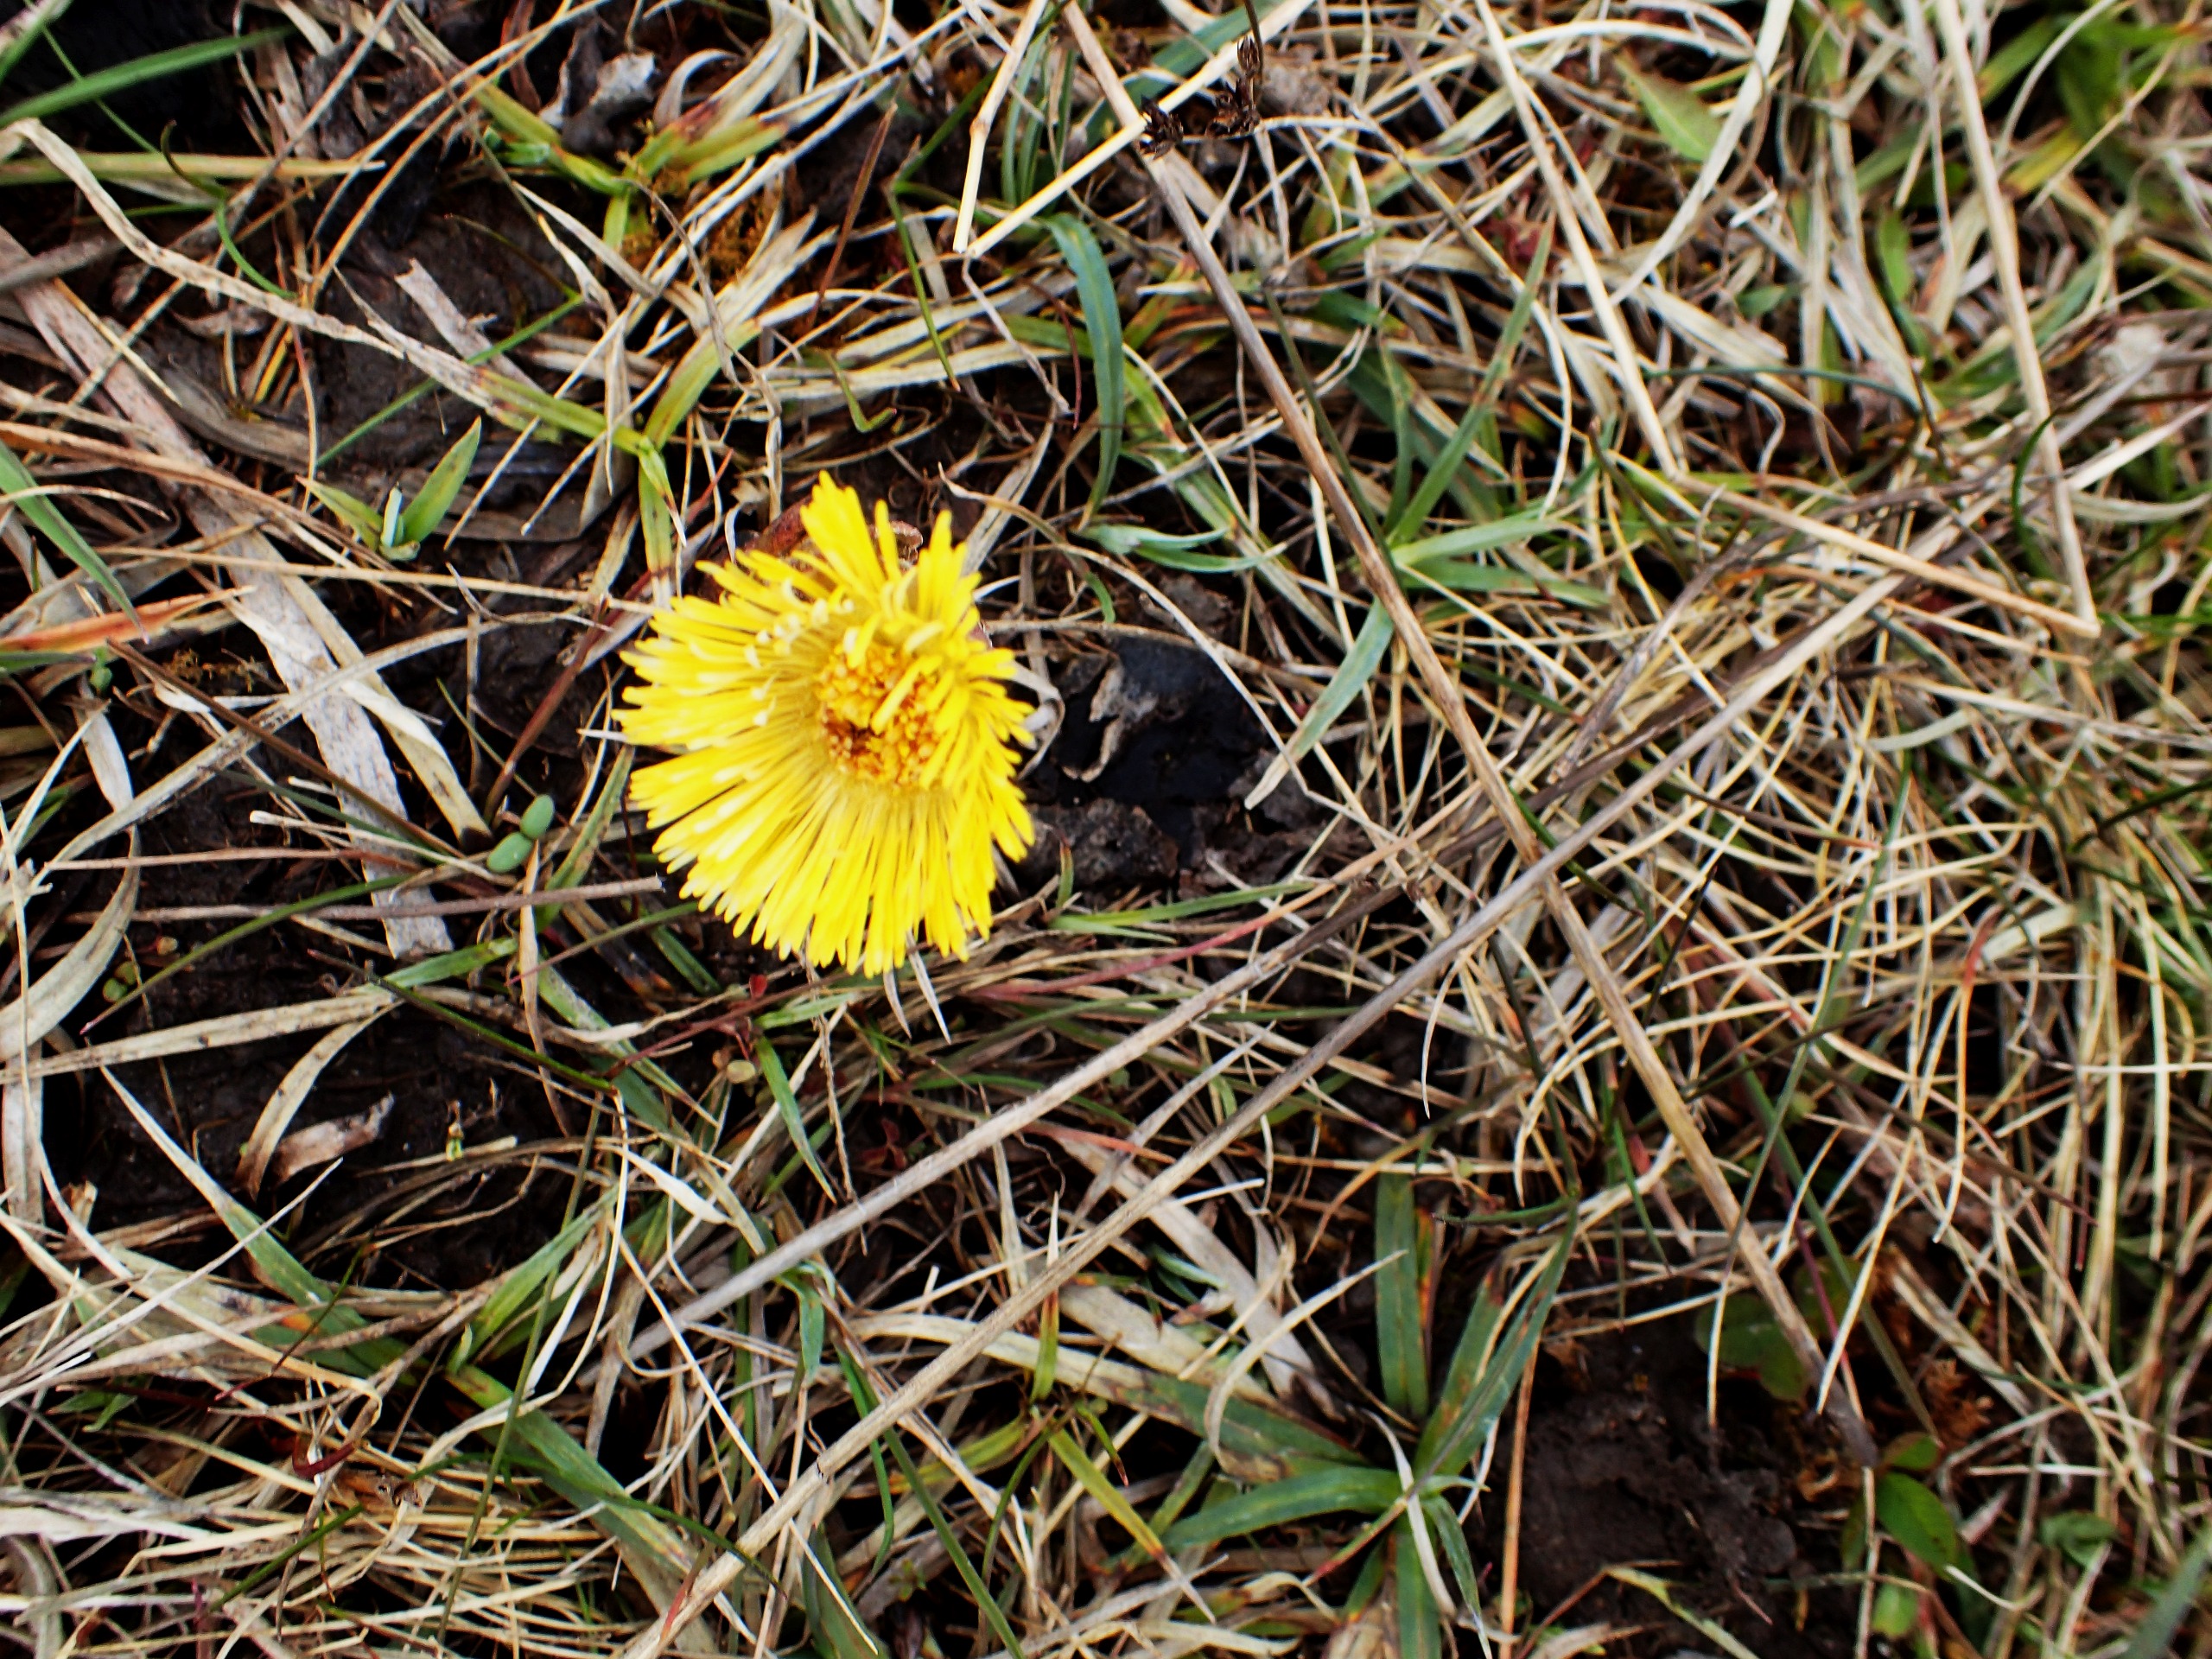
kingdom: Plantae
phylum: Tracheophyta
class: Magnoliopsida
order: Asterales
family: Asteraceae
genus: Tussilago
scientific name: Tussilago farfara
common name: Følfod
